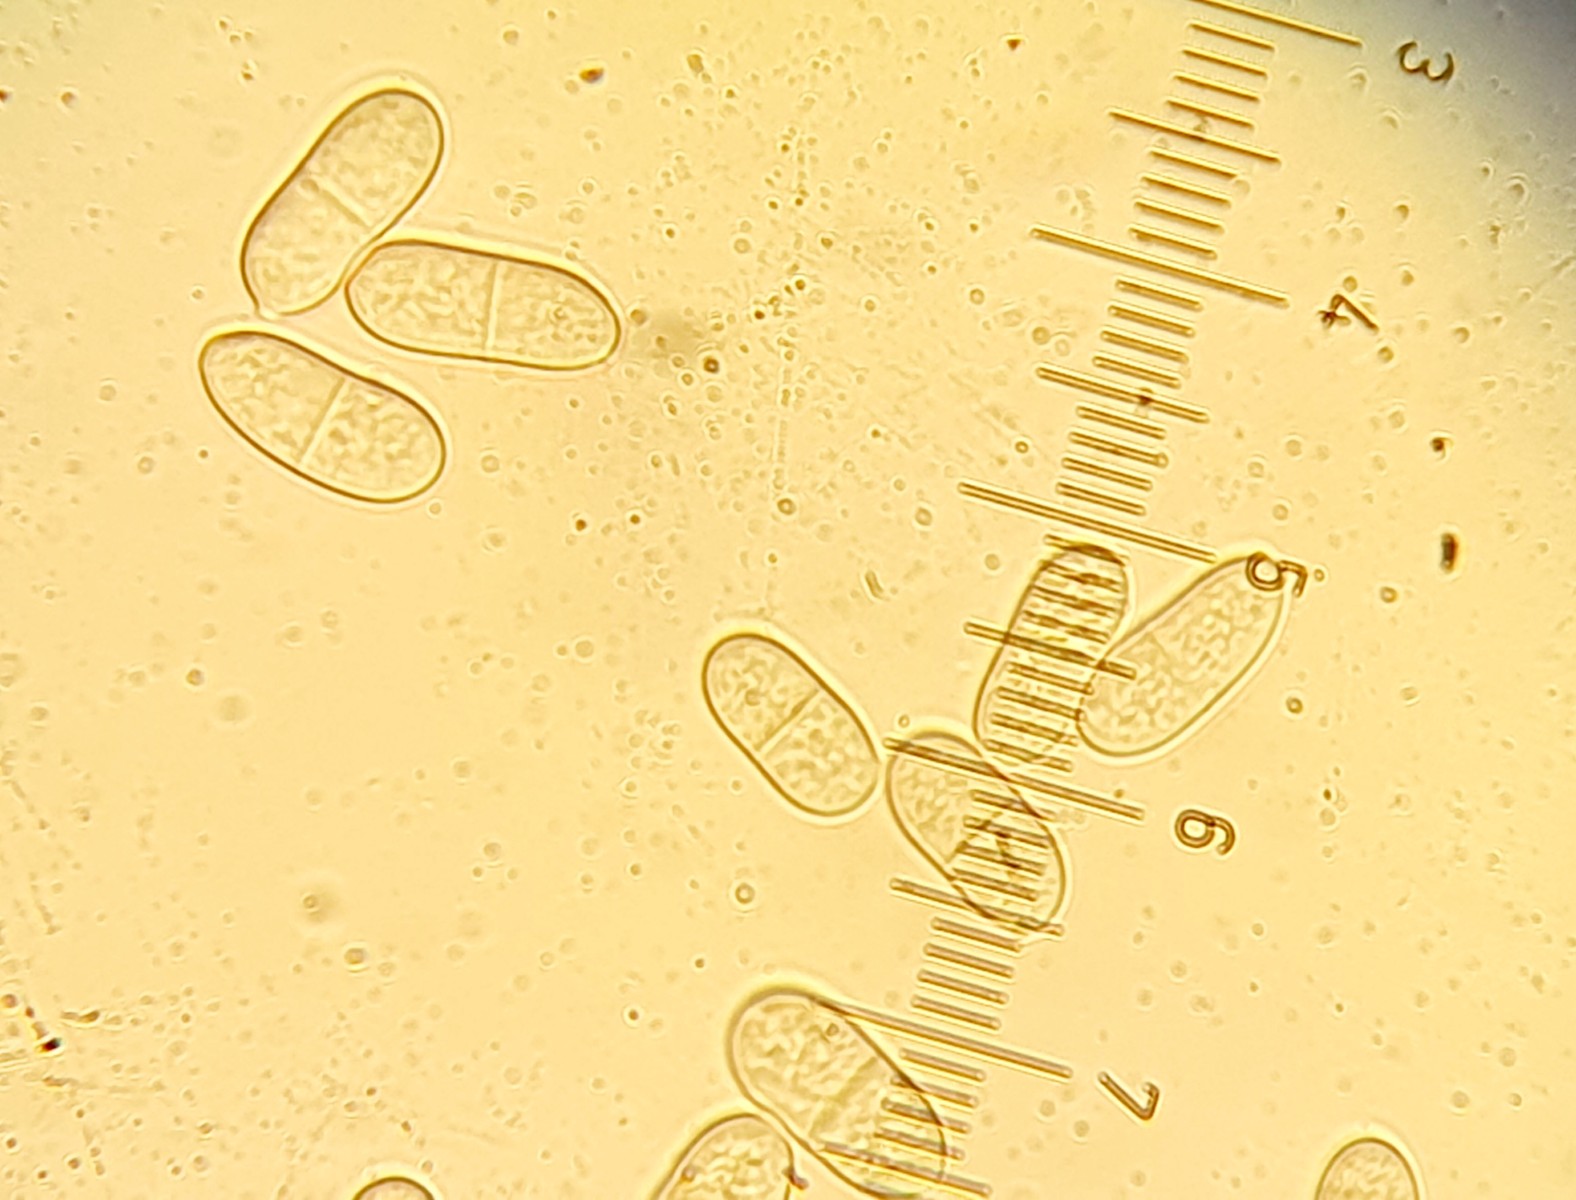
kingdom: Fungi
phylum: Ascomycota
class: Sordariomycetes
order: Hypocreales
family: Hypocreaceae
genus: Hypomyces
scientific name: Hypomyces aurantius
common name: almindelig snylteskorpe
